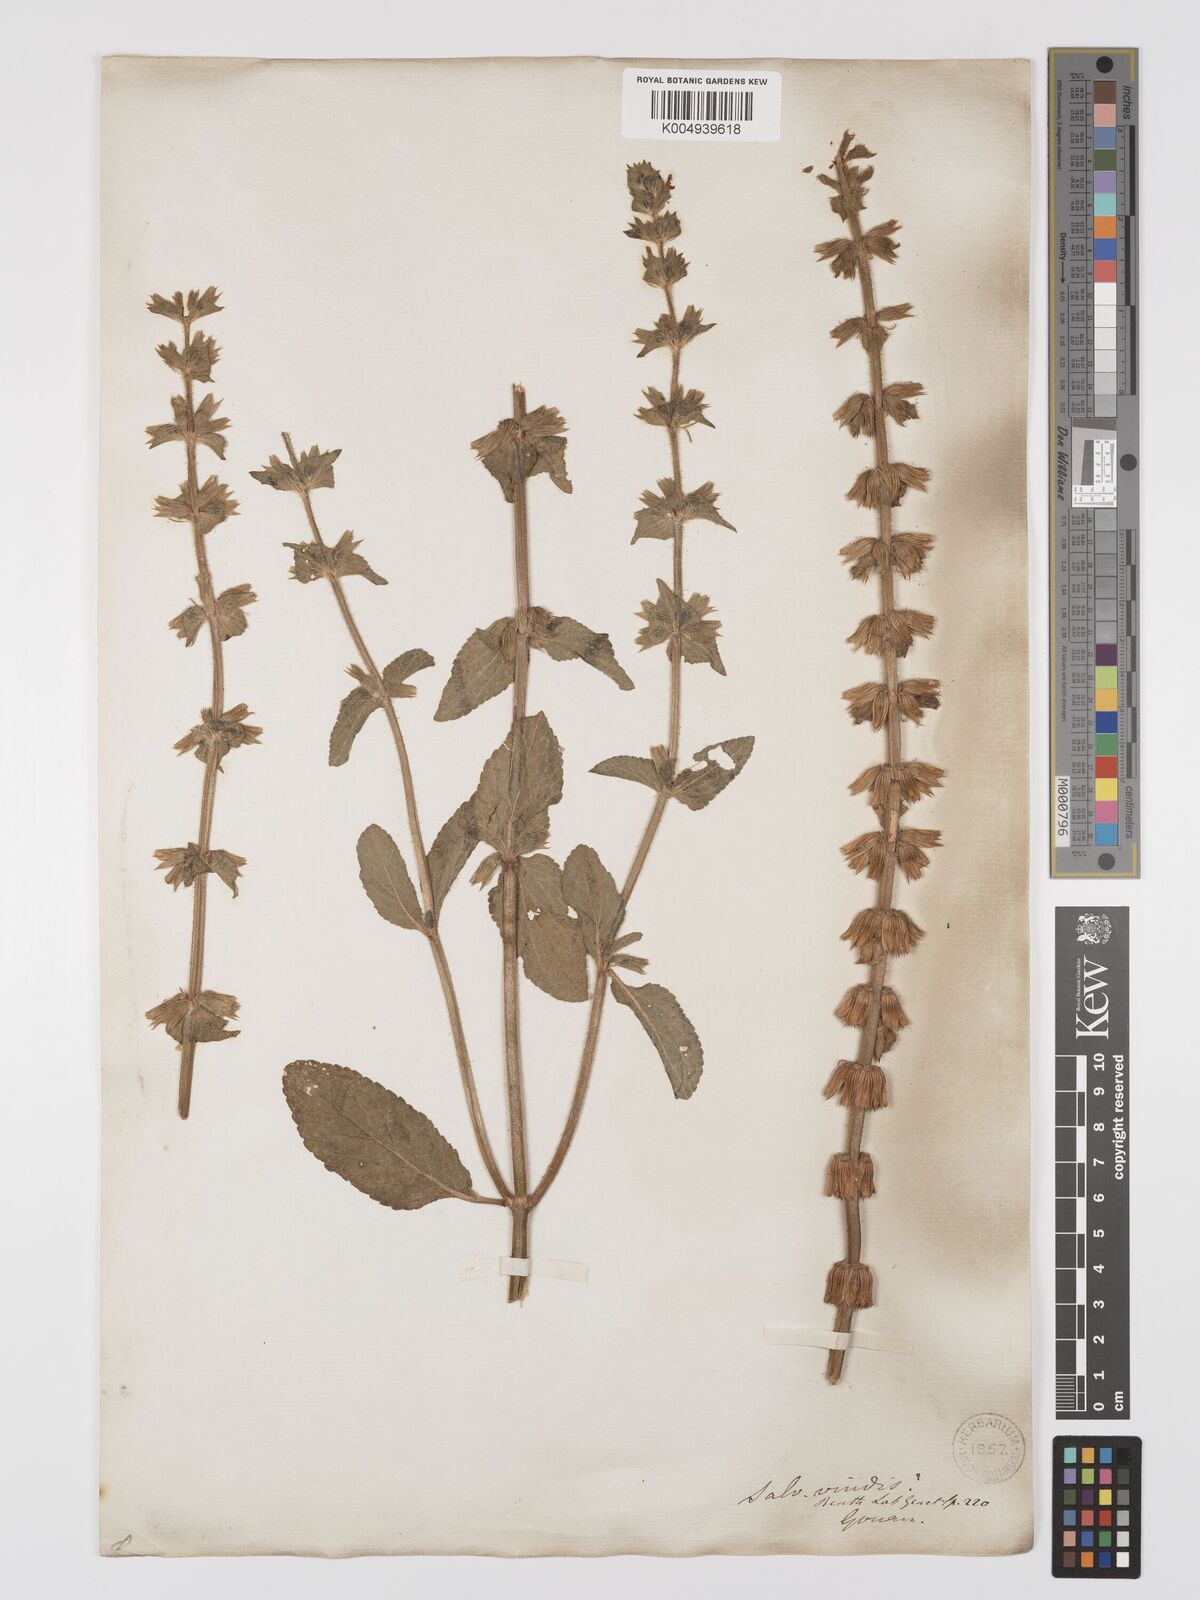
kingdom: Plantae
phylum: Tracheophyta
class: Magnoliopsida
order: Lamiales
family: Lamiaceae
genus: Salvia
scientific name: Salvia viridis
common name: Annual clary
